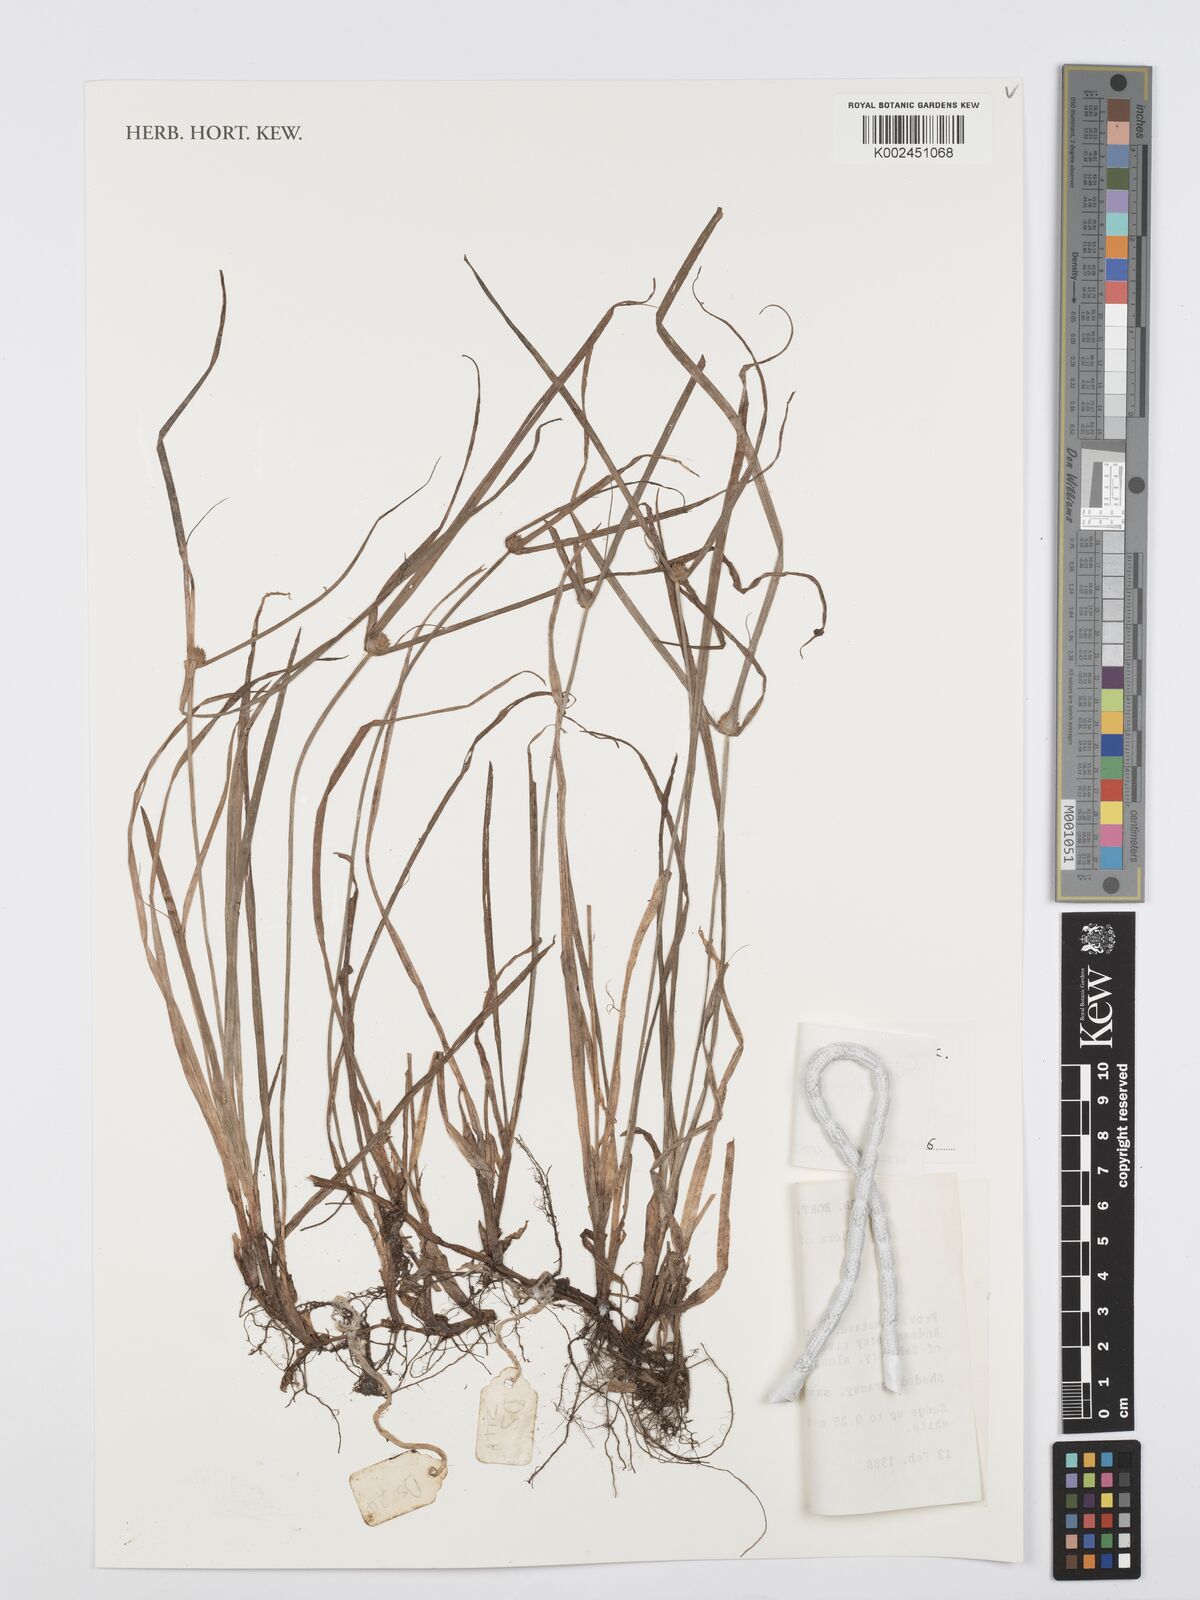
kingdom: Plantae
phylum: Tracheophyta
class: Liliopsida
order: Poales
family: Cyperaceae
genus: Cyperus
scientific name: Cyperus brevifolius
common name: Globe kyllinga
